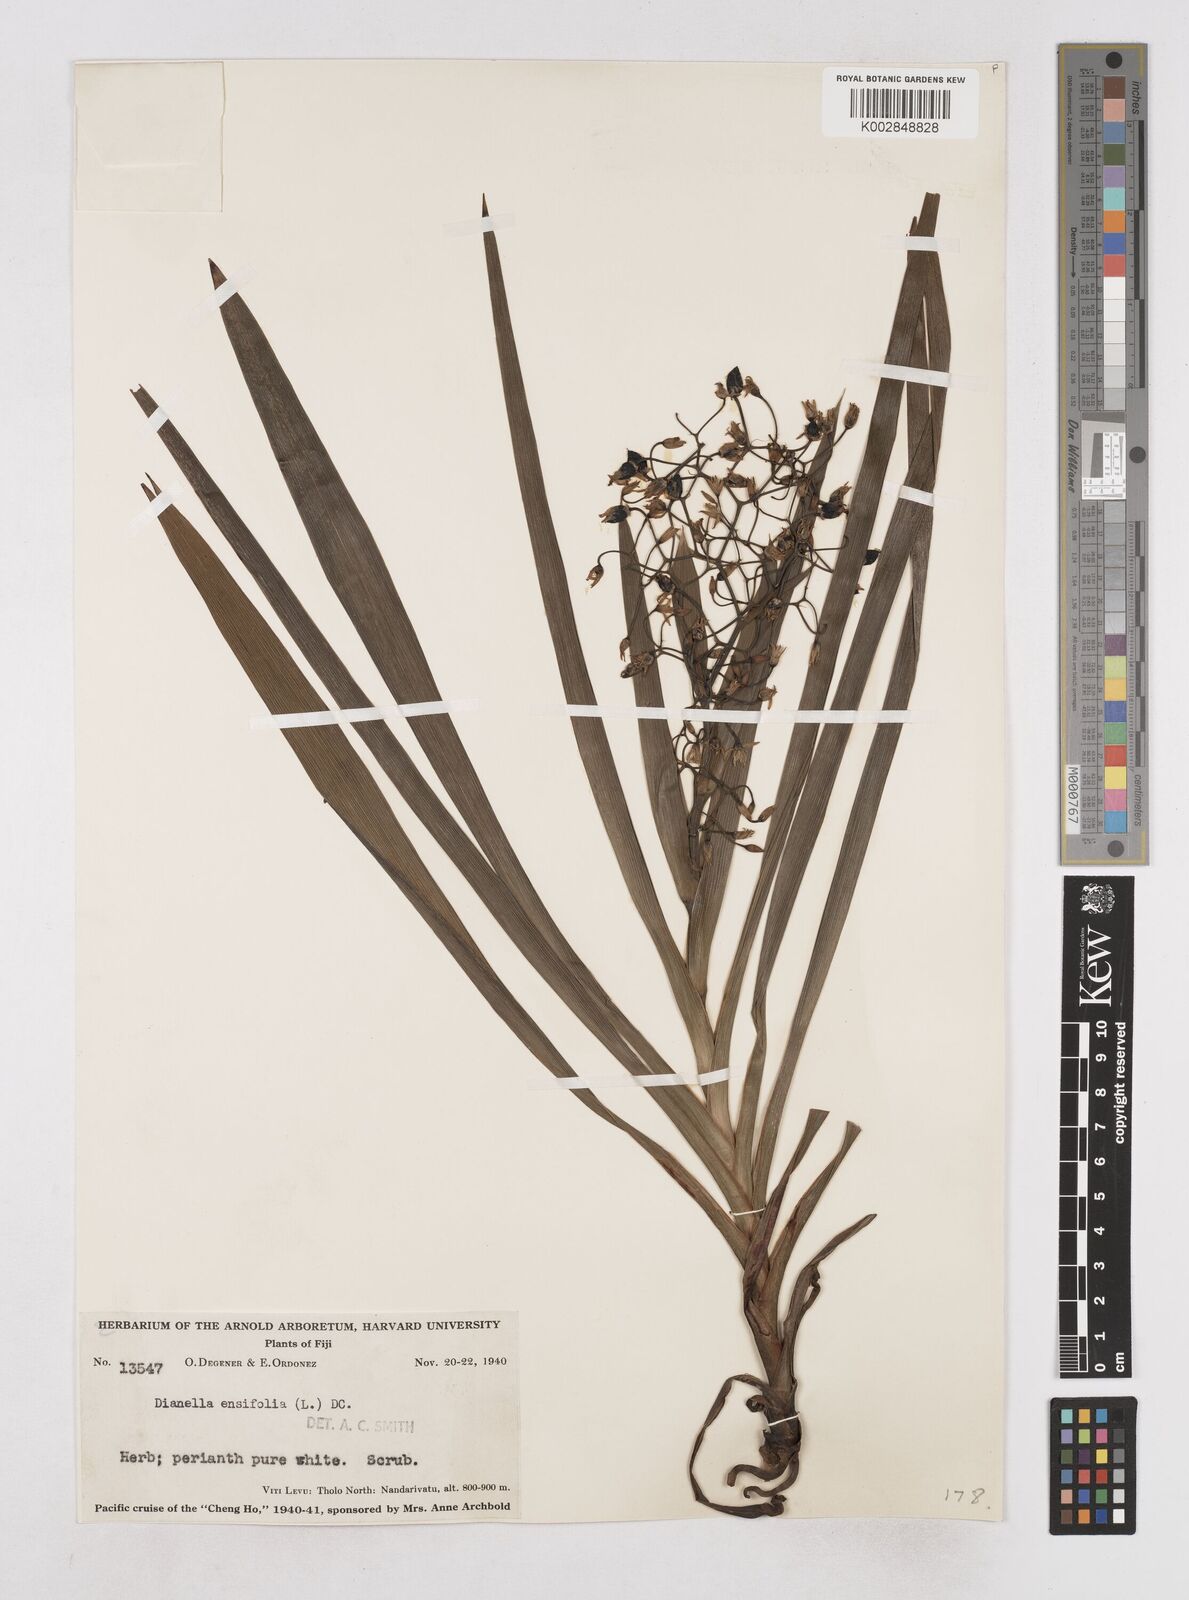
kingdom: Plantae
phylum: Tracheophyta
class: Liliopsida
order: Asparagales
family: Asphodelaceae
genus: Dianella
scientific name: Dianella ensifolia
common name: New zealand lilyplant
